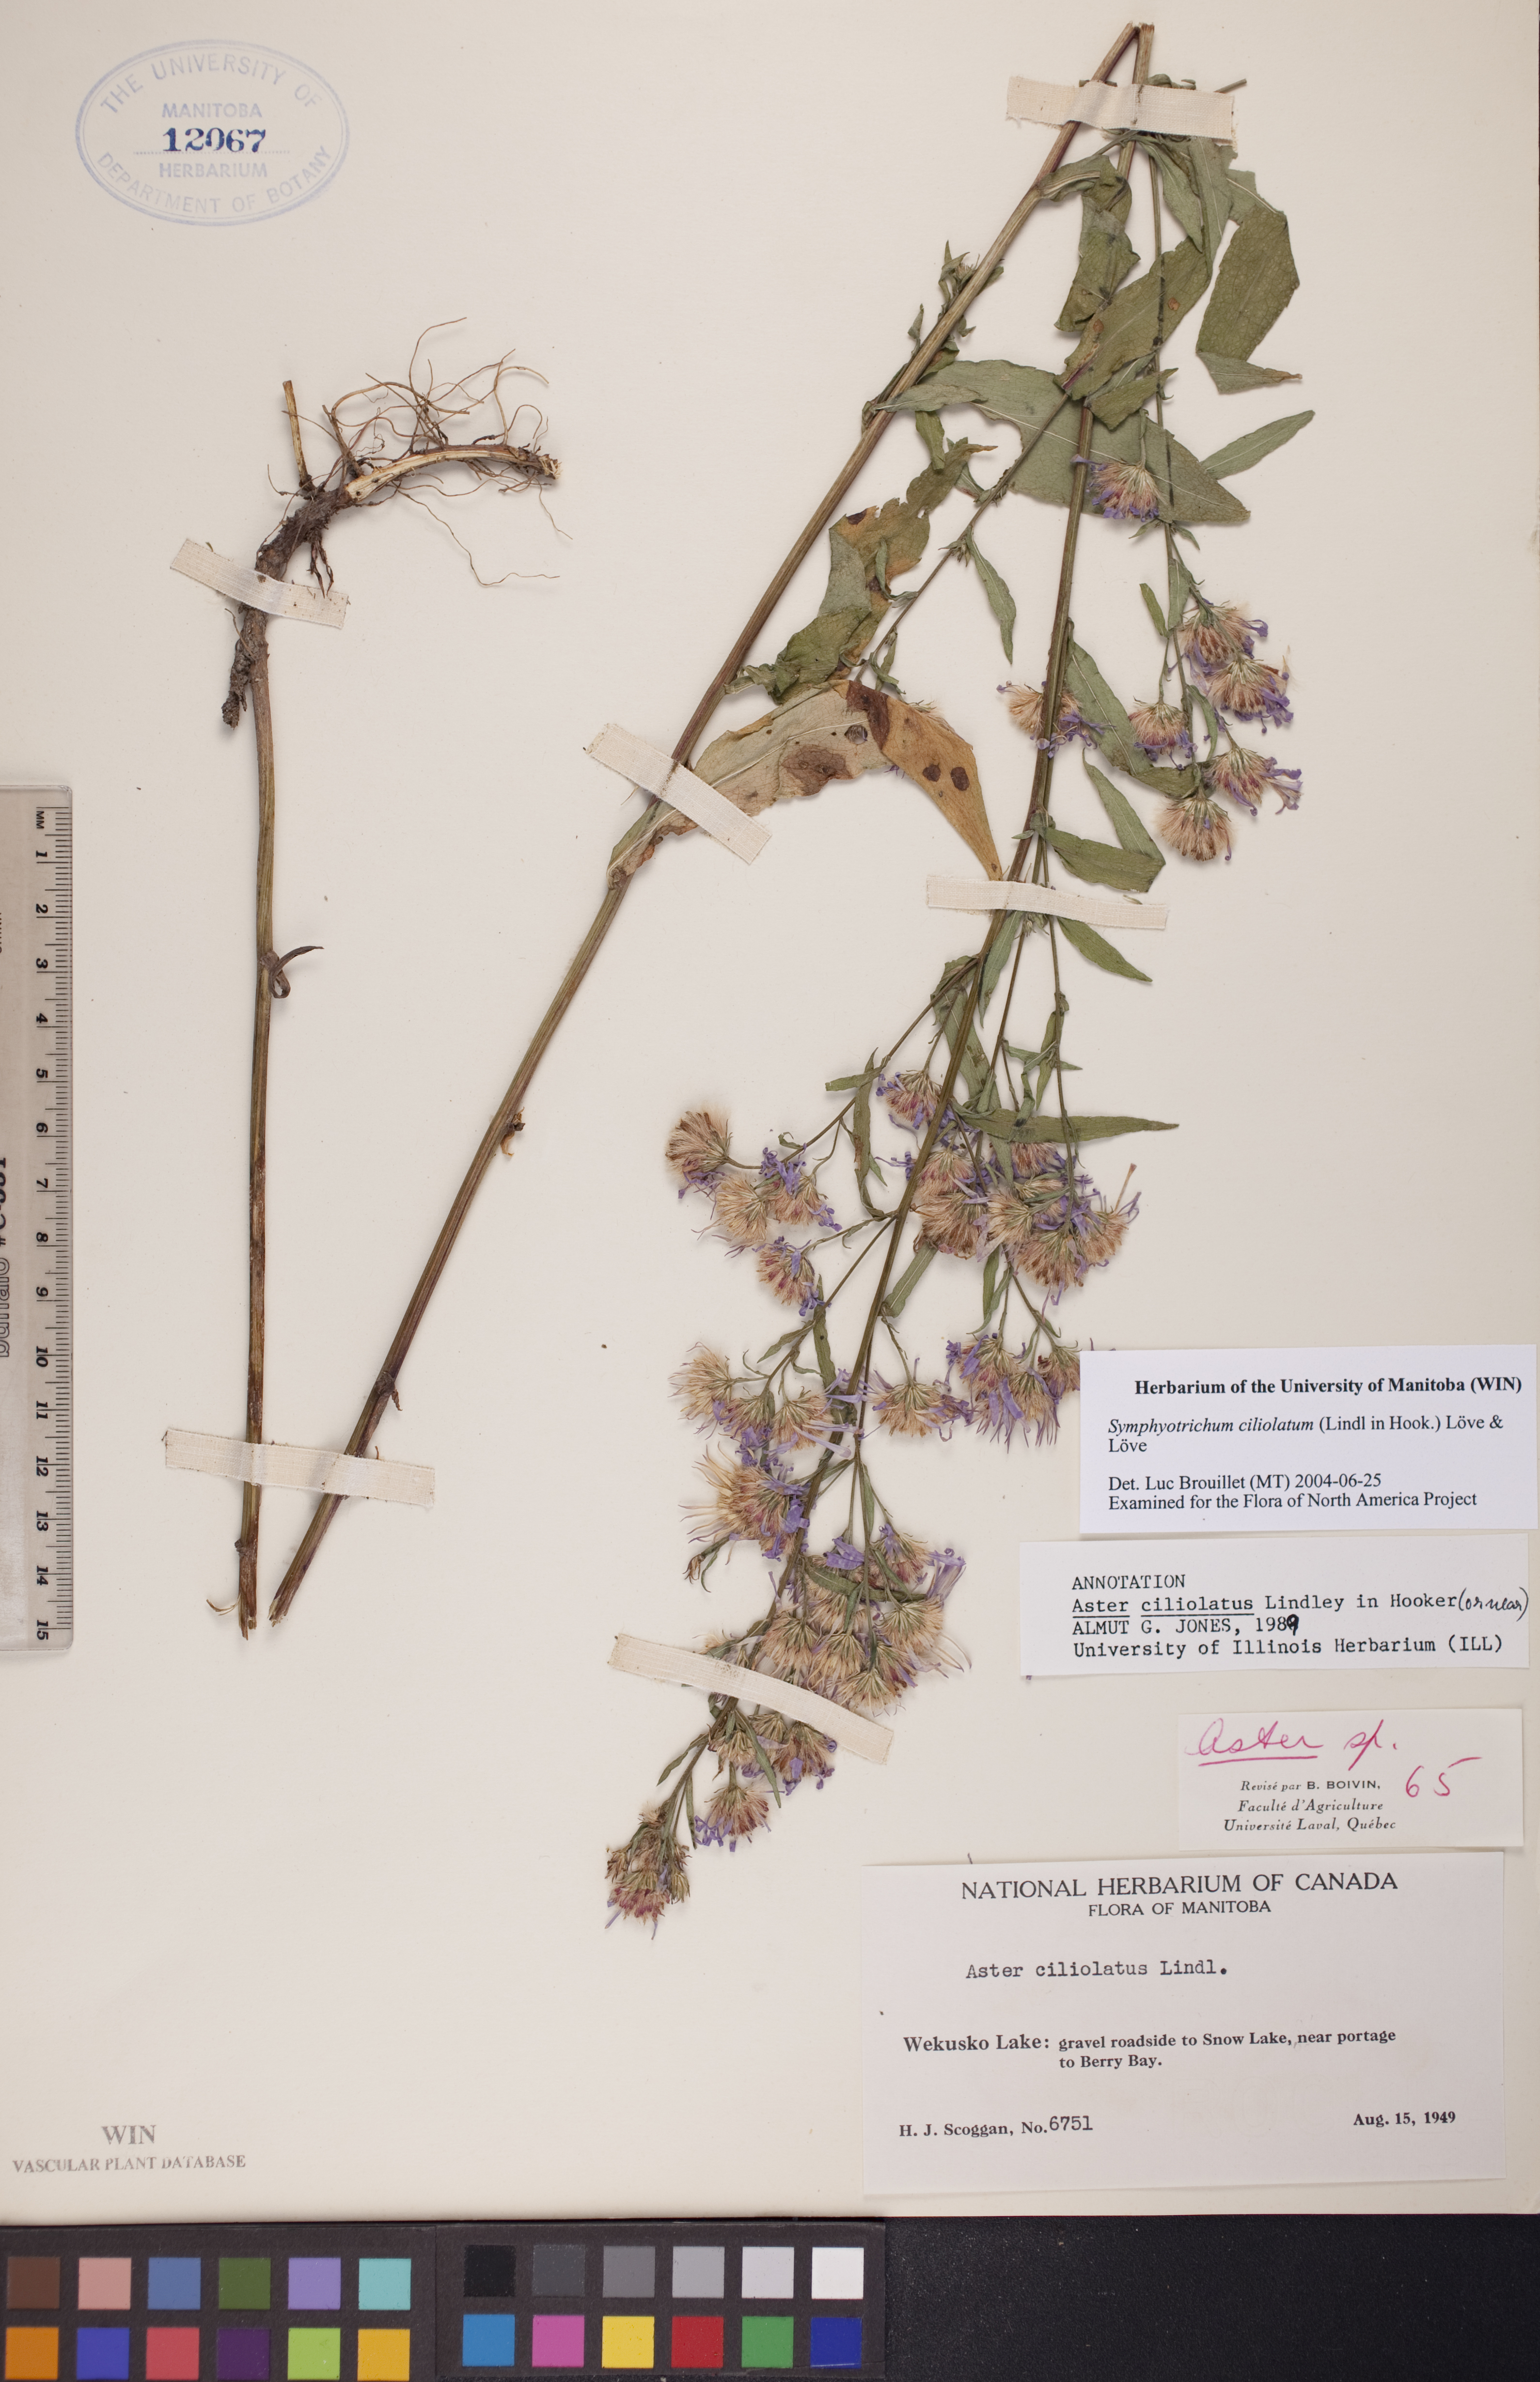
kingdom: Plantae
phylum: Tracheophyta
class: Magnoliopsida
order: Asterales
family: Asteraceae
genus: Symphyotrichum
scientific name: Symphyotrichum ciliolatum
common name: Fringed blue aster
